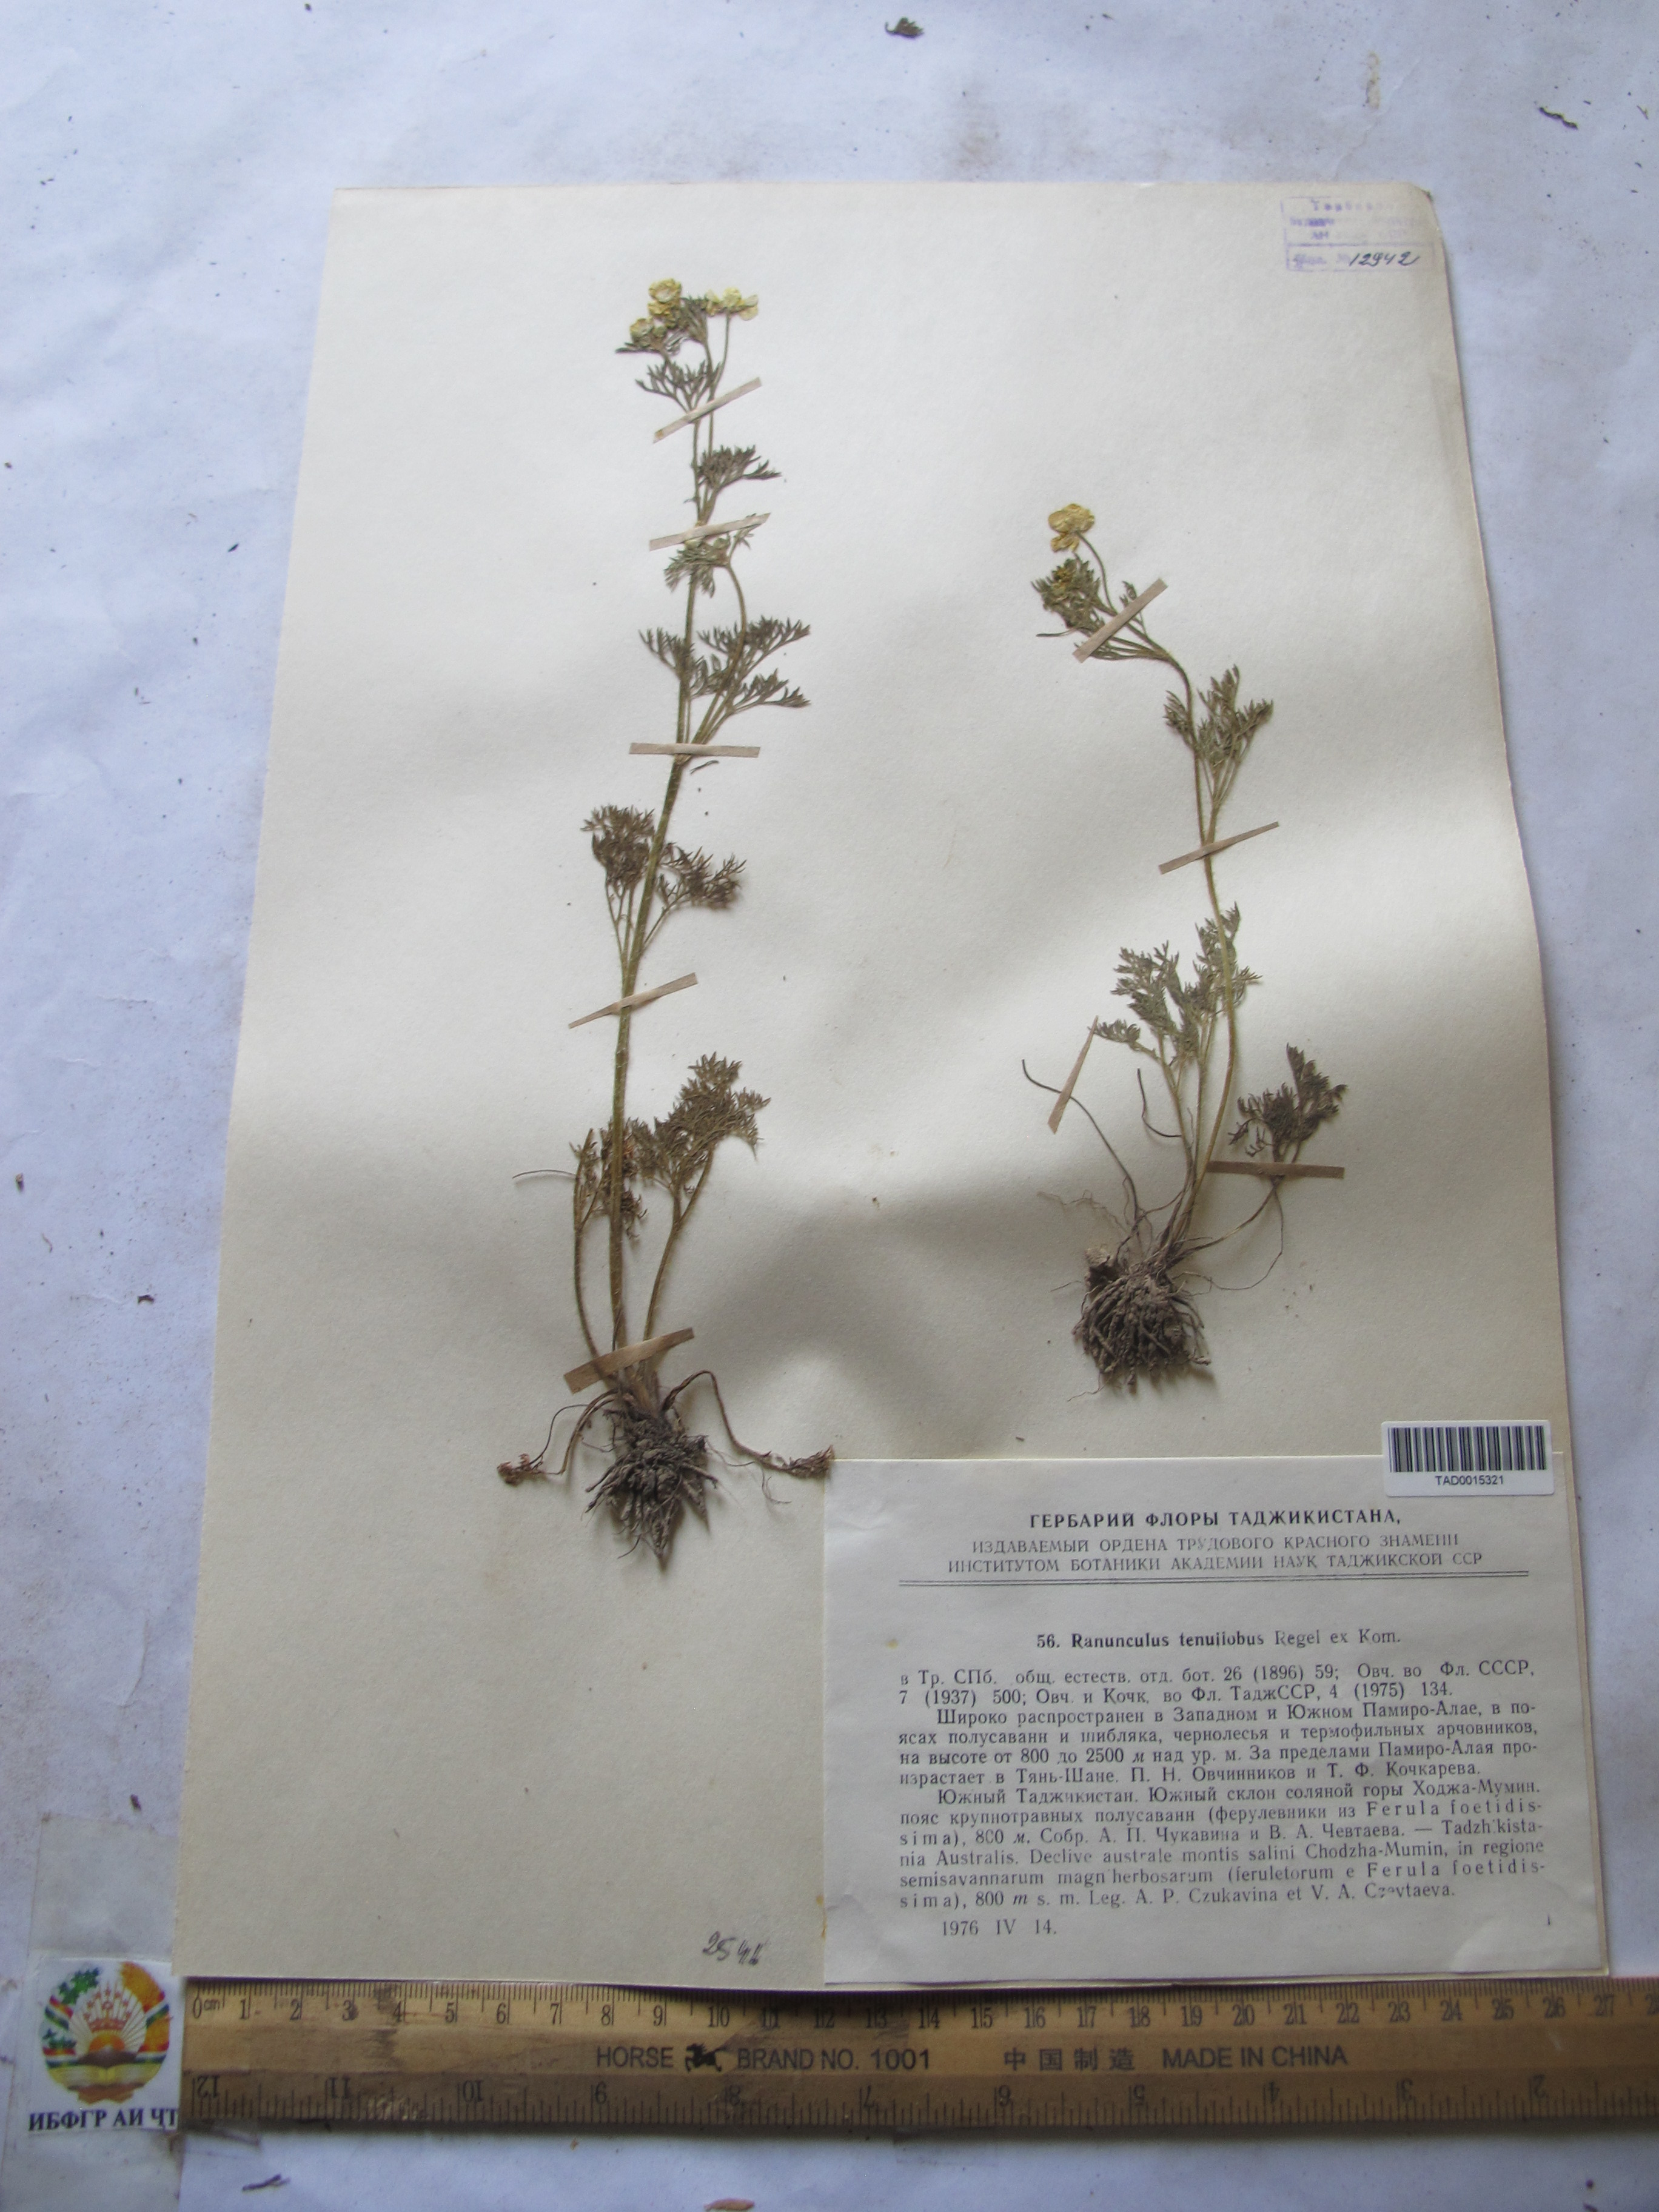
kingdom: Plantae
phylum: Tracheophyta
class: Magnoliopsida
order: Ranunculales
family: Ranunculaceae
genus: Ranunculus
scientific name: Ranunculus tenuilobus
